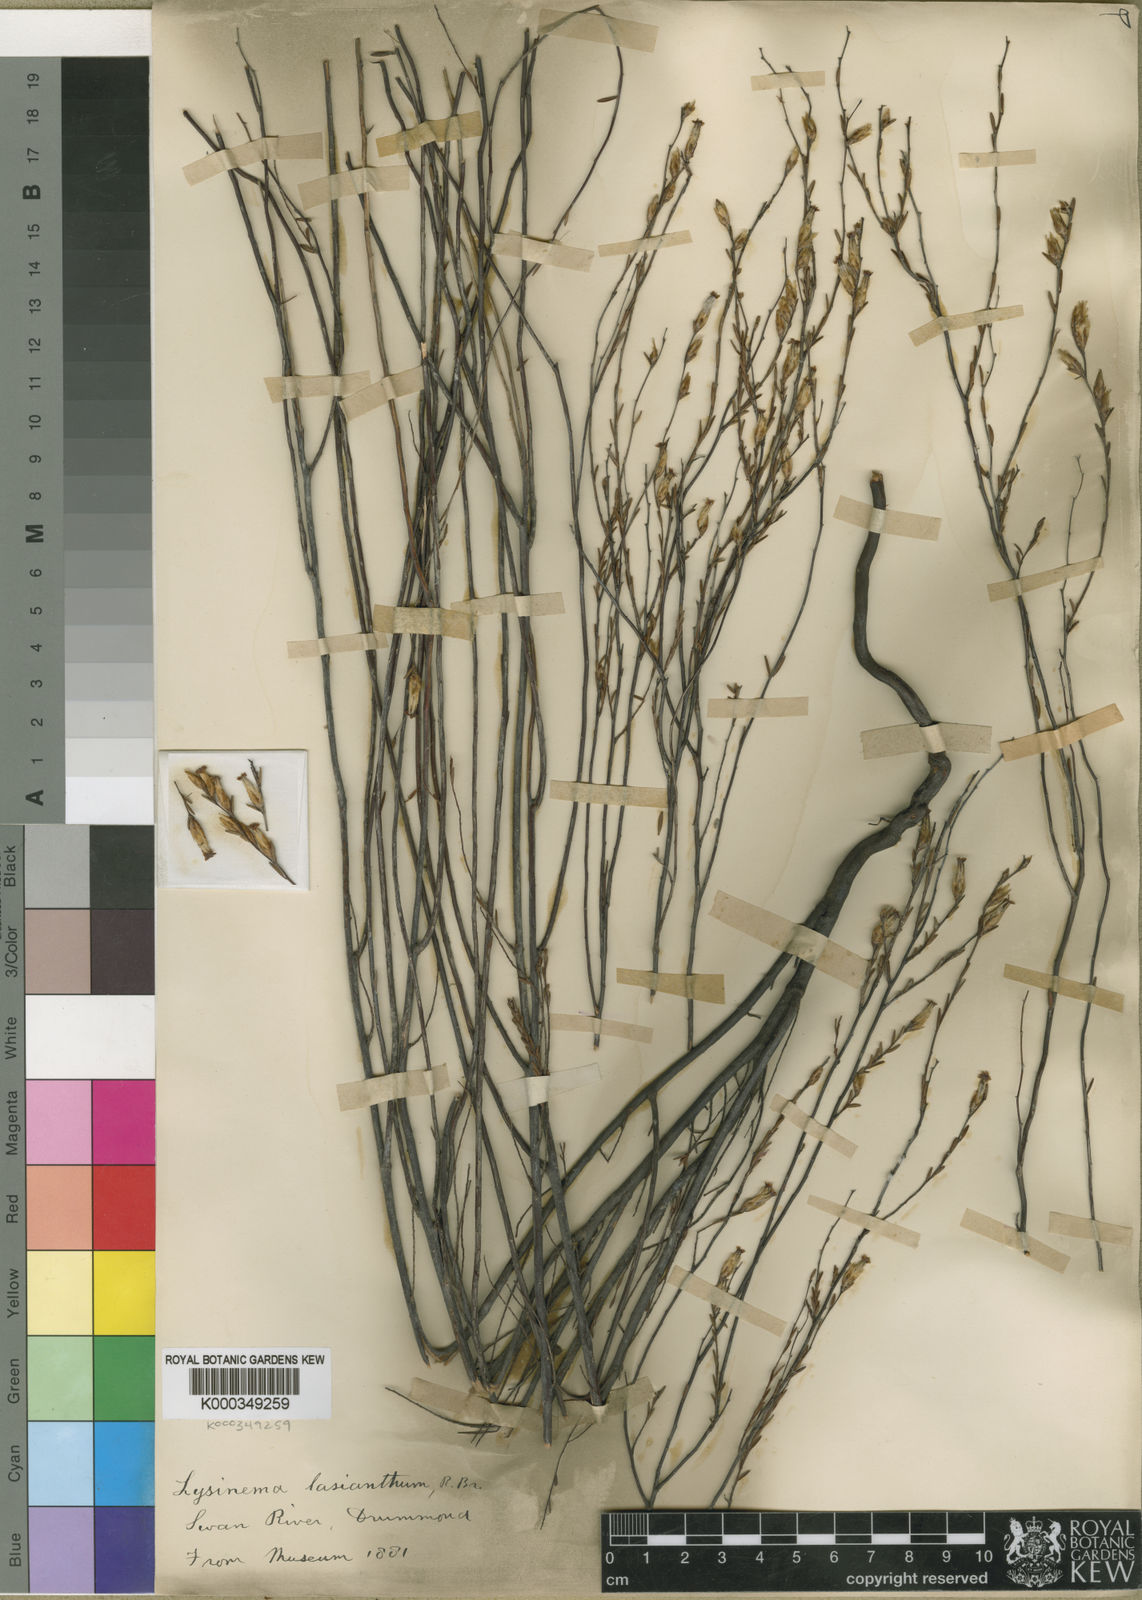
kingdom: Plantae
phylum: Tracheophyta
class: Magnoliopsida
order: Ericales
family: Ericaceae
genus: Lysinema
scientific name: Lysinema lasianthum
